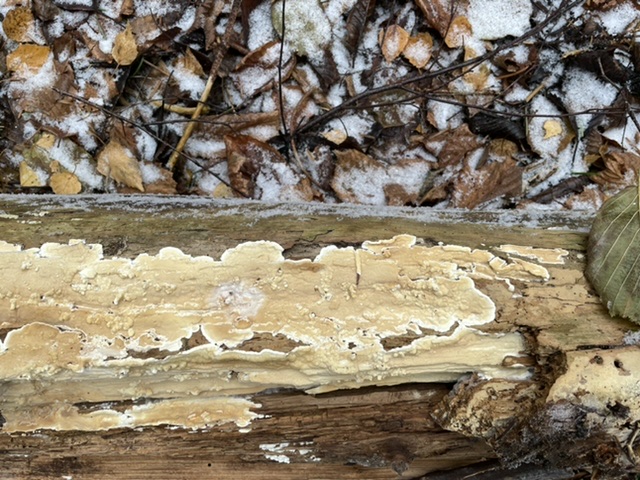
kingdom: Fungi
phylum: Basidiomycota
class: Agaricomycetes
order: Polyporales
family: Dacryobolaceae
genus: Dacryobolus
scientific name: Dacryobolus karstenii
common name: glat vulkanskorpe
